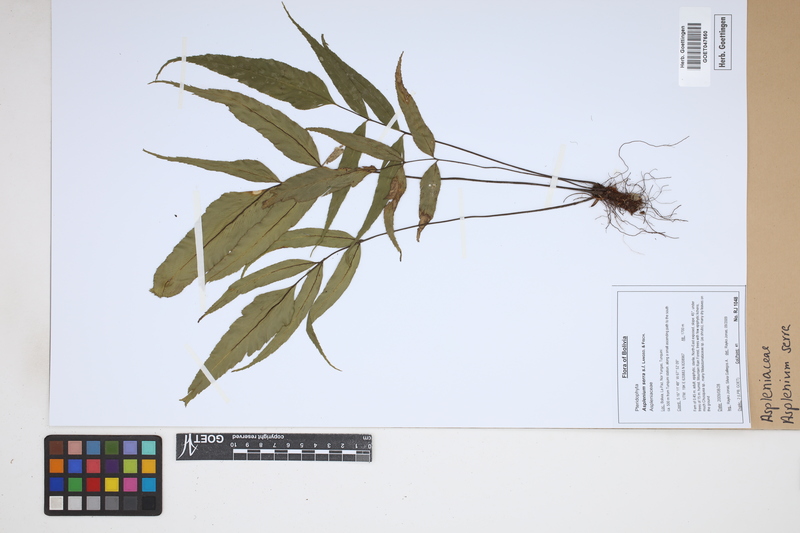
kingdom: Plantae
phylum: Tracheophyta
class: Polypodiopsida
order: Polypodiales
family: Aspleniaceae
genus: Asplenium
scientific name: Asplenium serra
